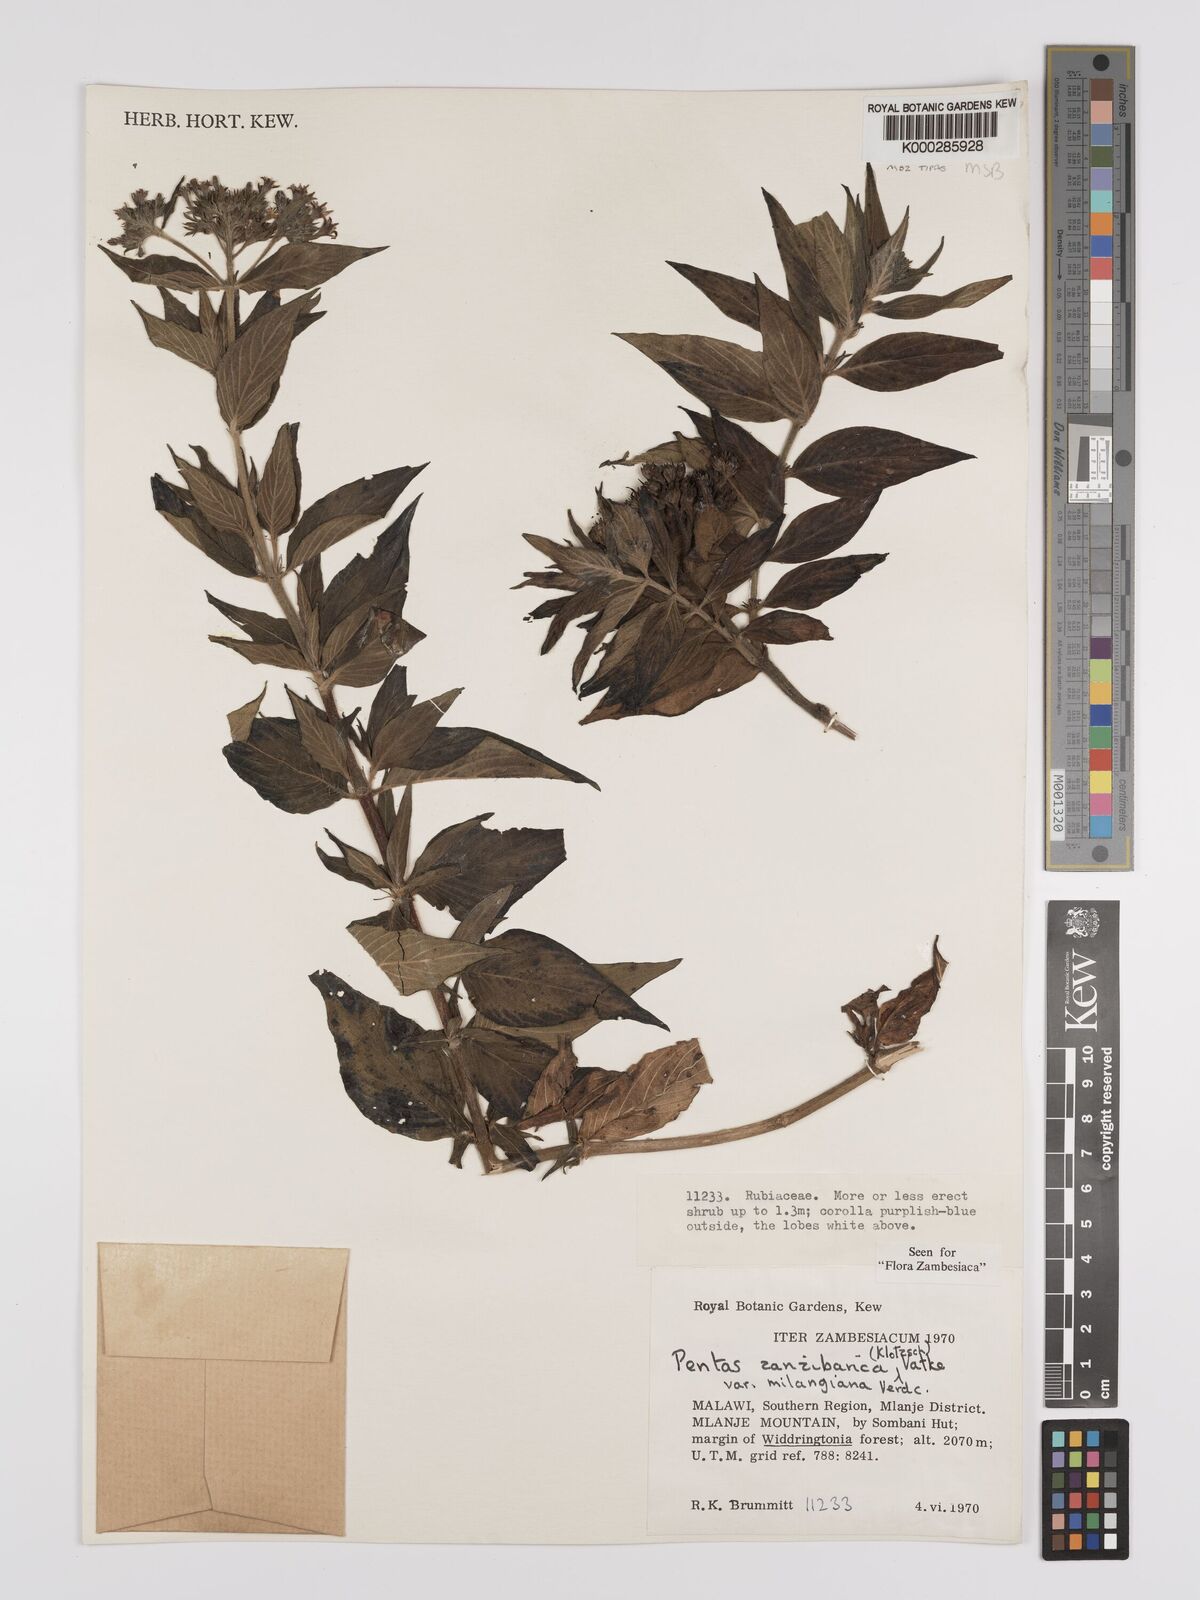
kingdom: Plantae
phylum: Tracheophyta
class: Magnoliopsida
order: Gentianales
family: Rubiaceae
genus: Pentas
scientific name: Pentas zanzibarica
